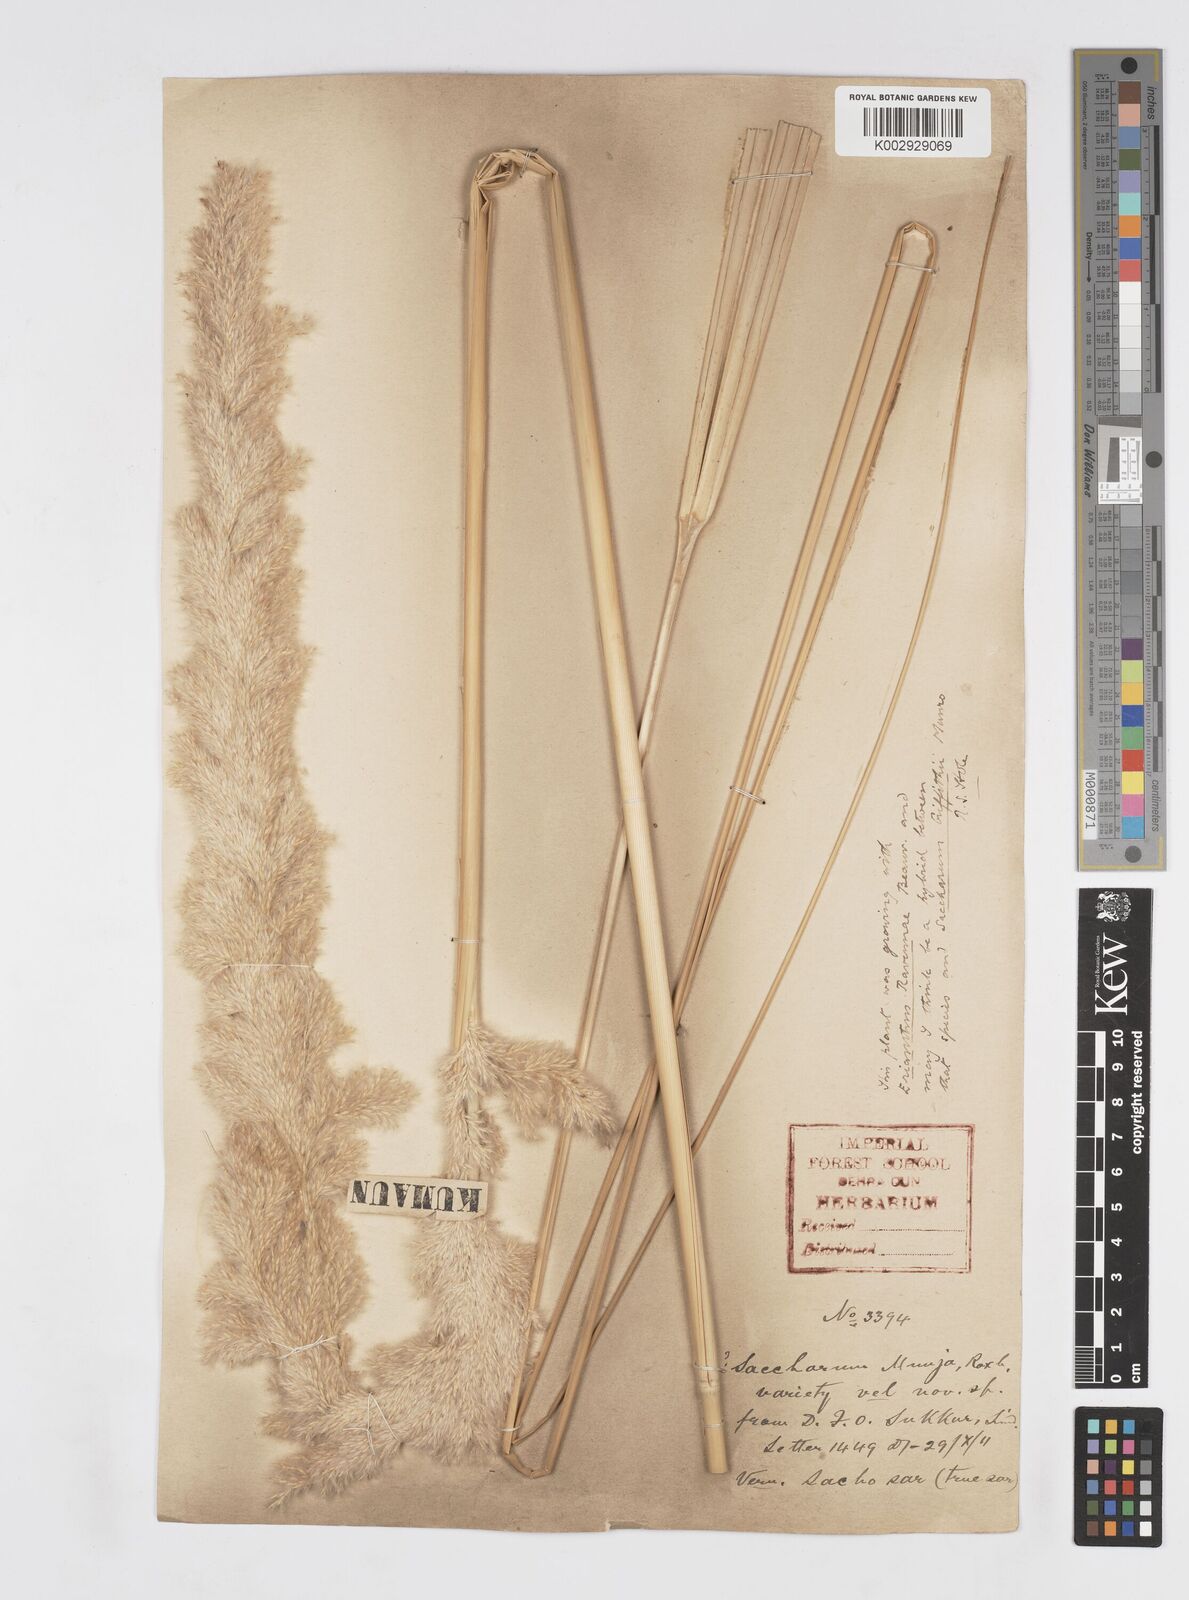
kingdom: Plantae
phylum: Tracheophyta
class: Liliopsida
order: Poales
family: Poaceae
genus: Tripidium
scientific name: Tripidium bengalense
